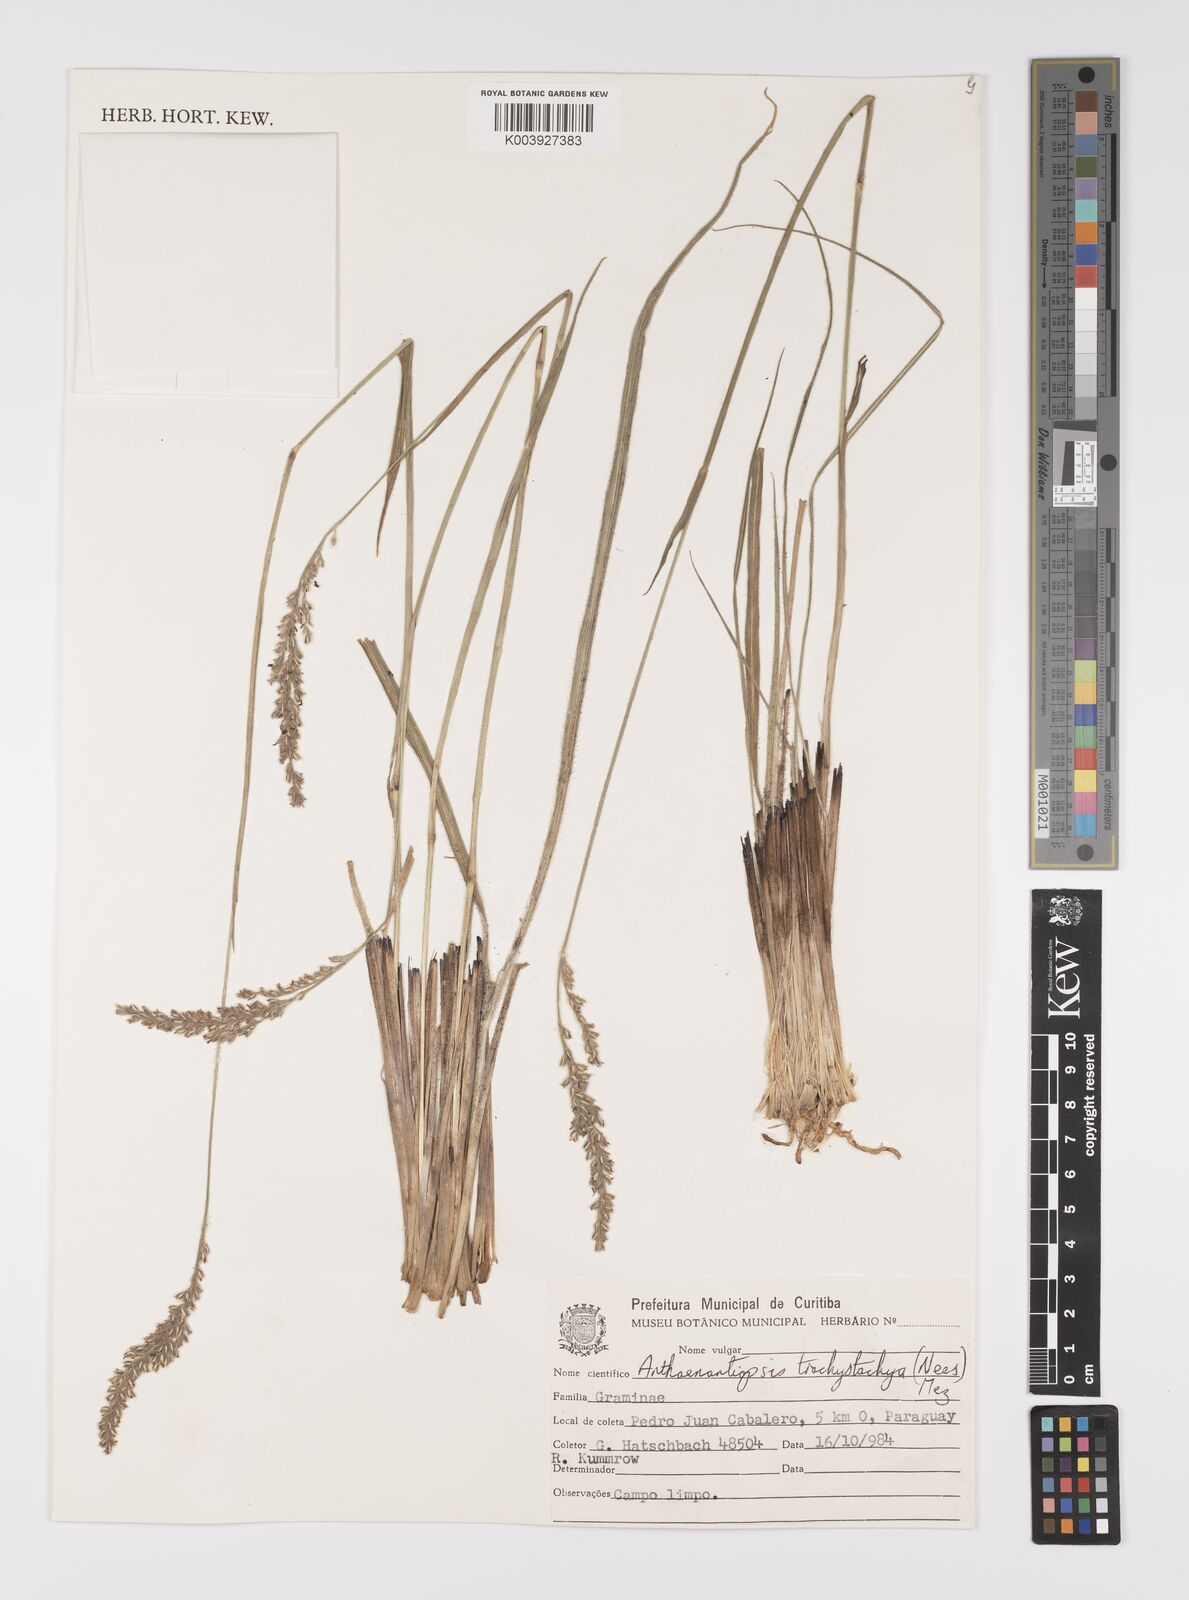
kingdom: Plantae
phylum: Tracheophyta
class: Liliopsida
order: Poales
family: Poaceae
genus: Anthaenantiopsis
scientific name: Anthaenantiopsis perforata
